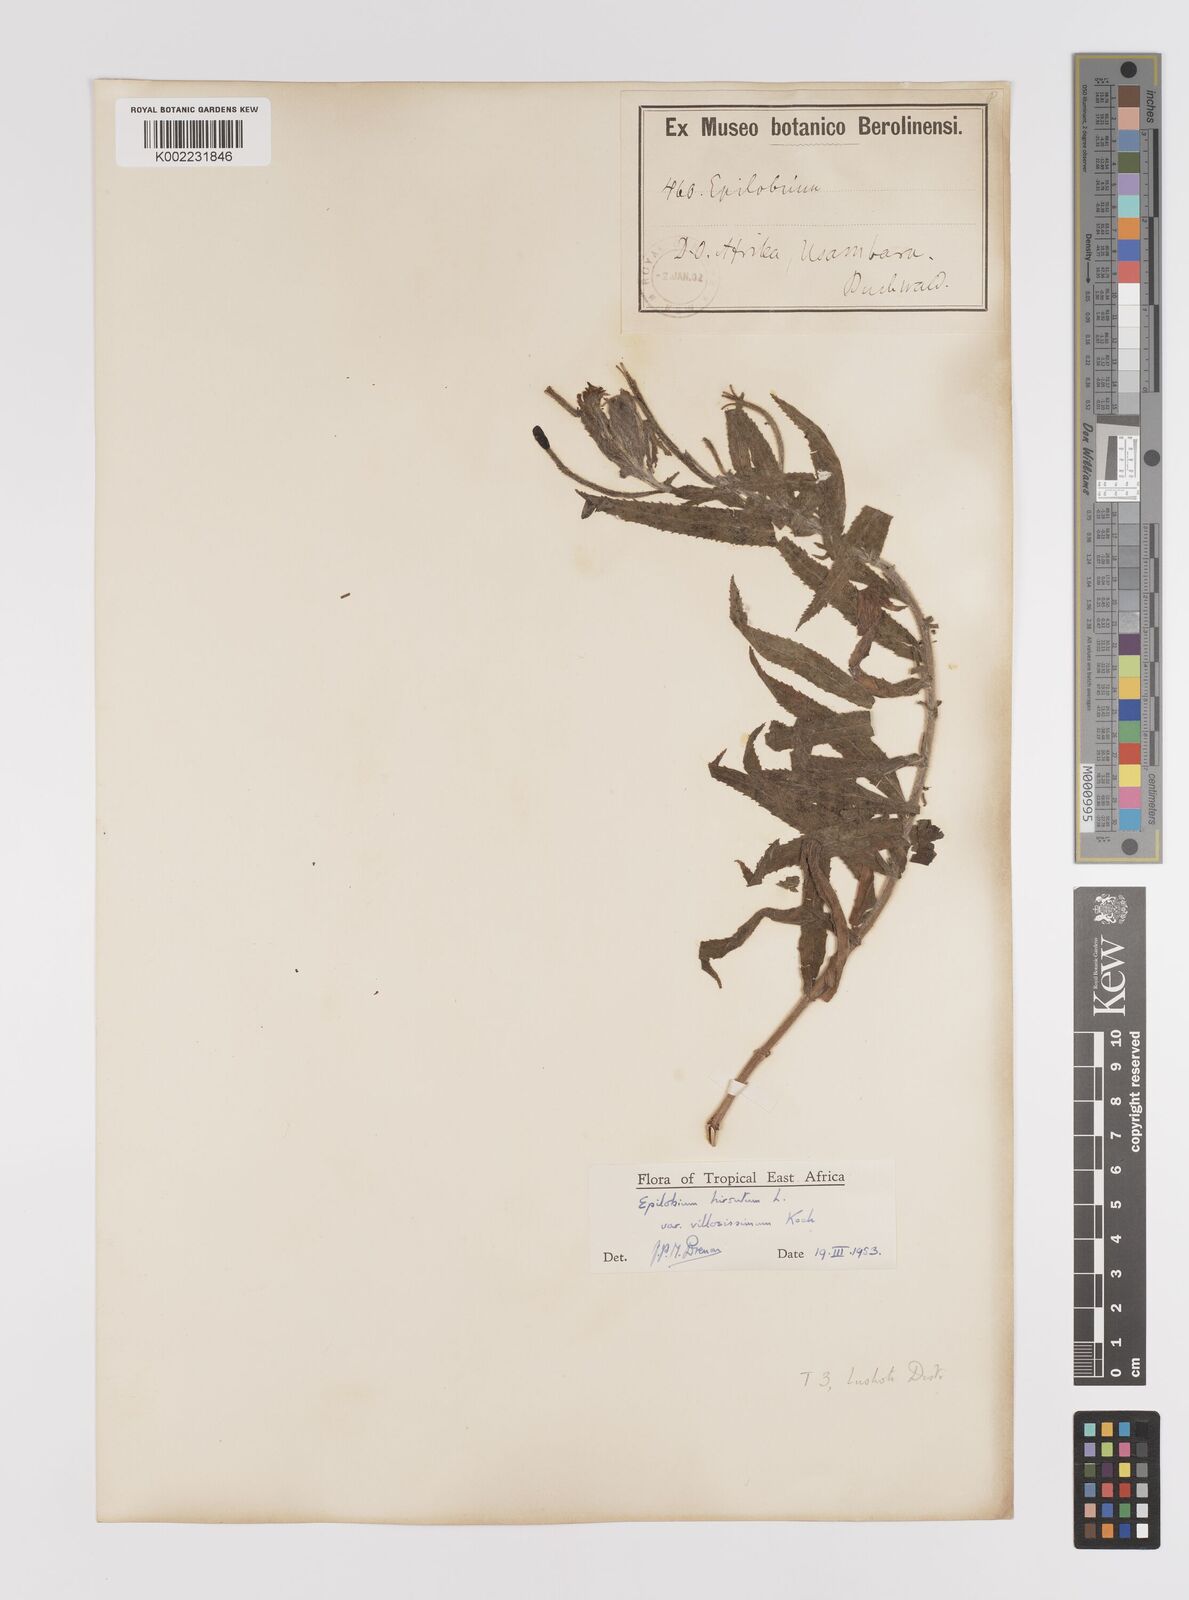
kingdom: Plantae
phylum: Tracheophyta
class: Magnoliopsida
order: Myrtales
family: Onagraceae
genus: Epilobium
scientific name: Epilobium hirsutum
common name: Great willowherb
